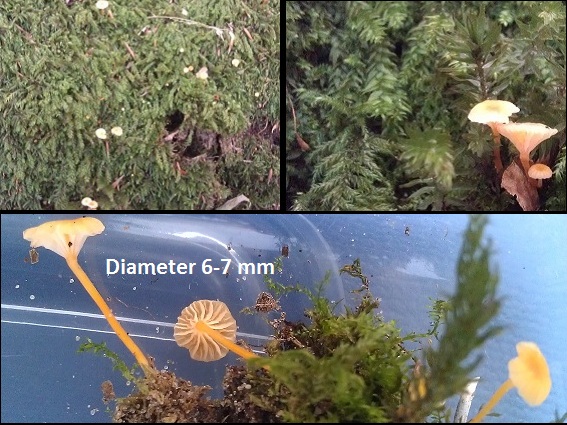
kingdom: Fungi
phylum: Basidiomycota
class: Agaricomycetes
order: Hymenochaetales
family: Rickenellaceae
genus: Rickenella
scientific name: Rickenella fibula
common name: orange mosnavlehat
